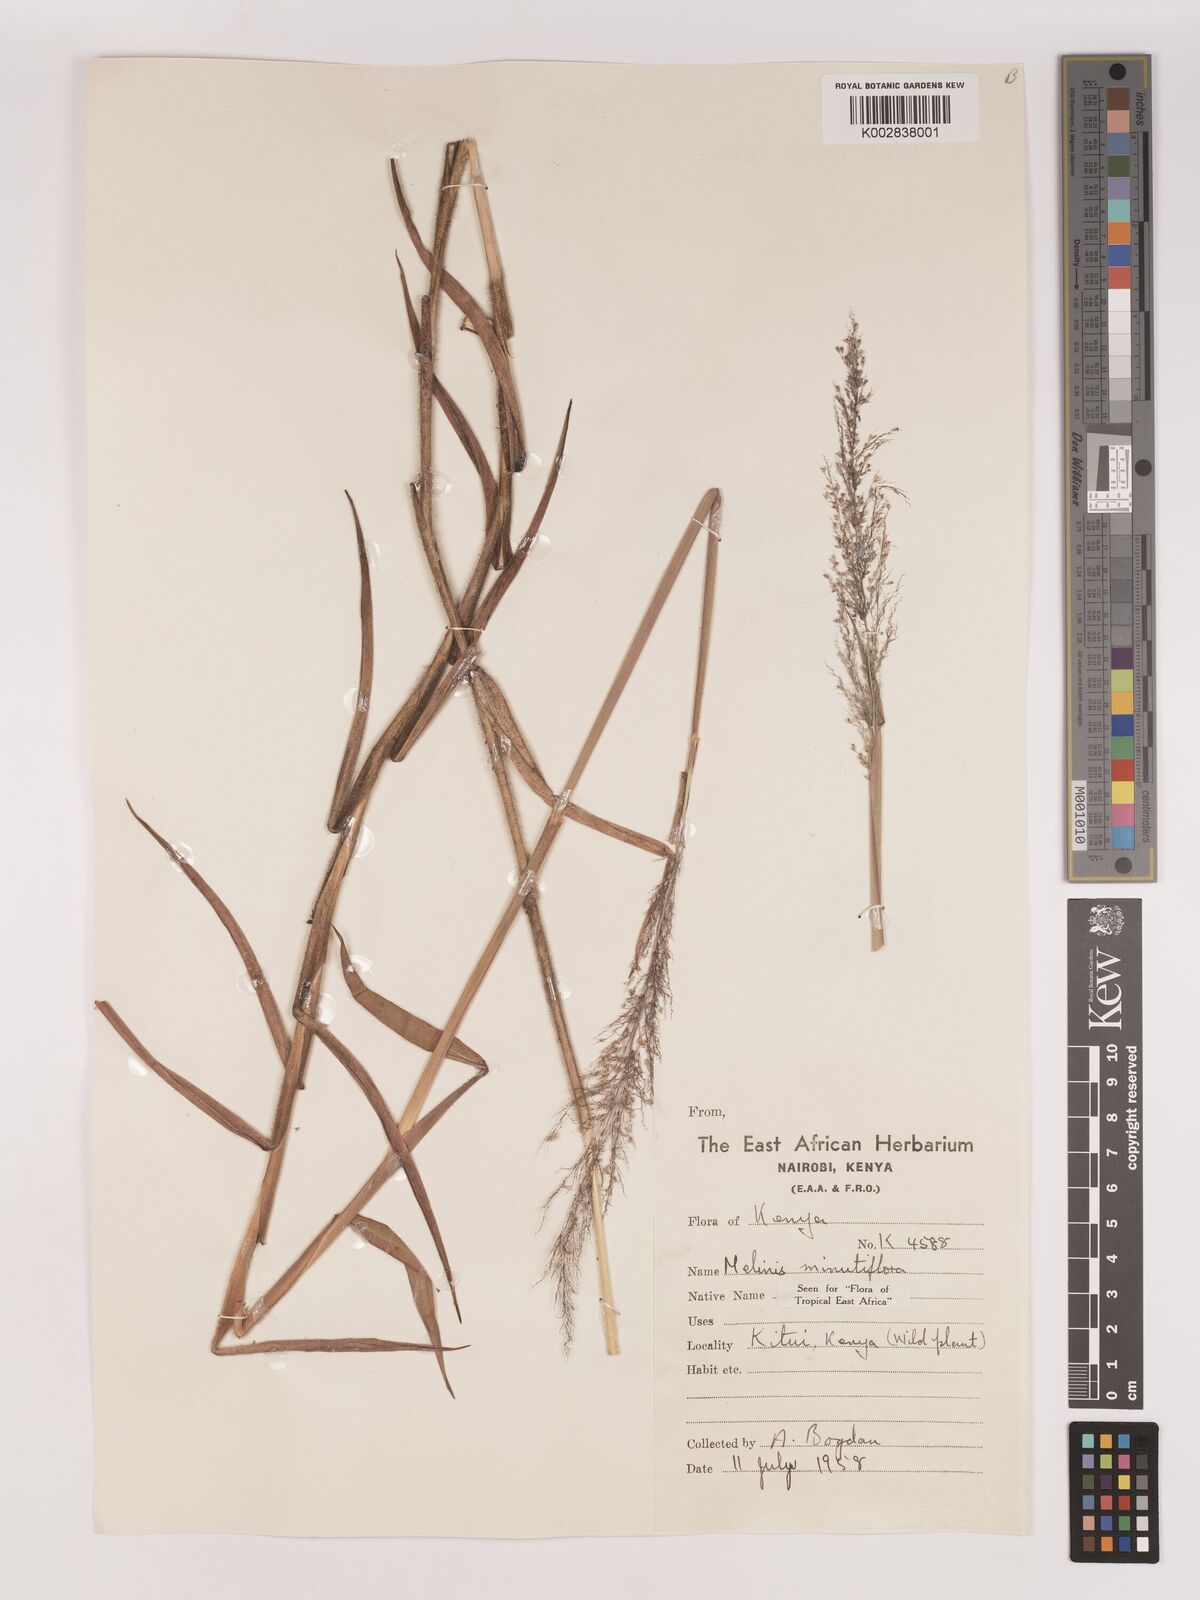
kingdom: Plantae
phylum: Tracheophyta
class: Liliopsida
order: Poales
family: Poaceae
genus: Melinis
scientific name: Melinis minutiflora
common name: Molassesgrass
